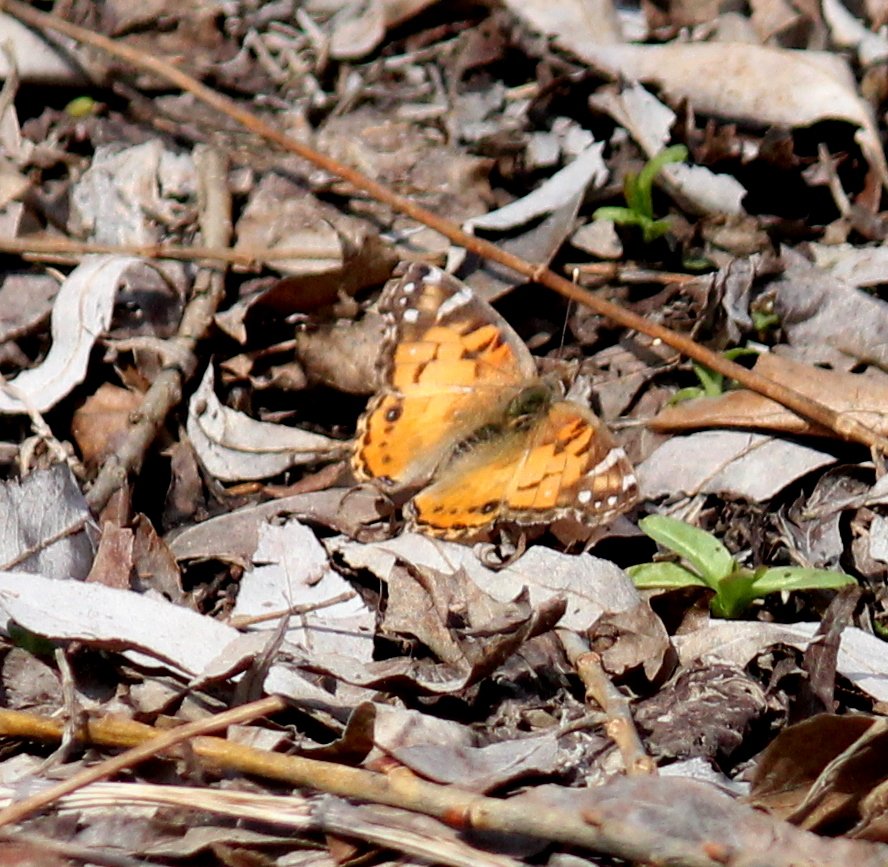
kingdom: Animalia
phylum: Arthropoda
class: Insecta
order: Lepidoptera
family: Nymphalidae
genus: Vanessa
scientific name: Vanessa virginiensis
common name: American Lady
